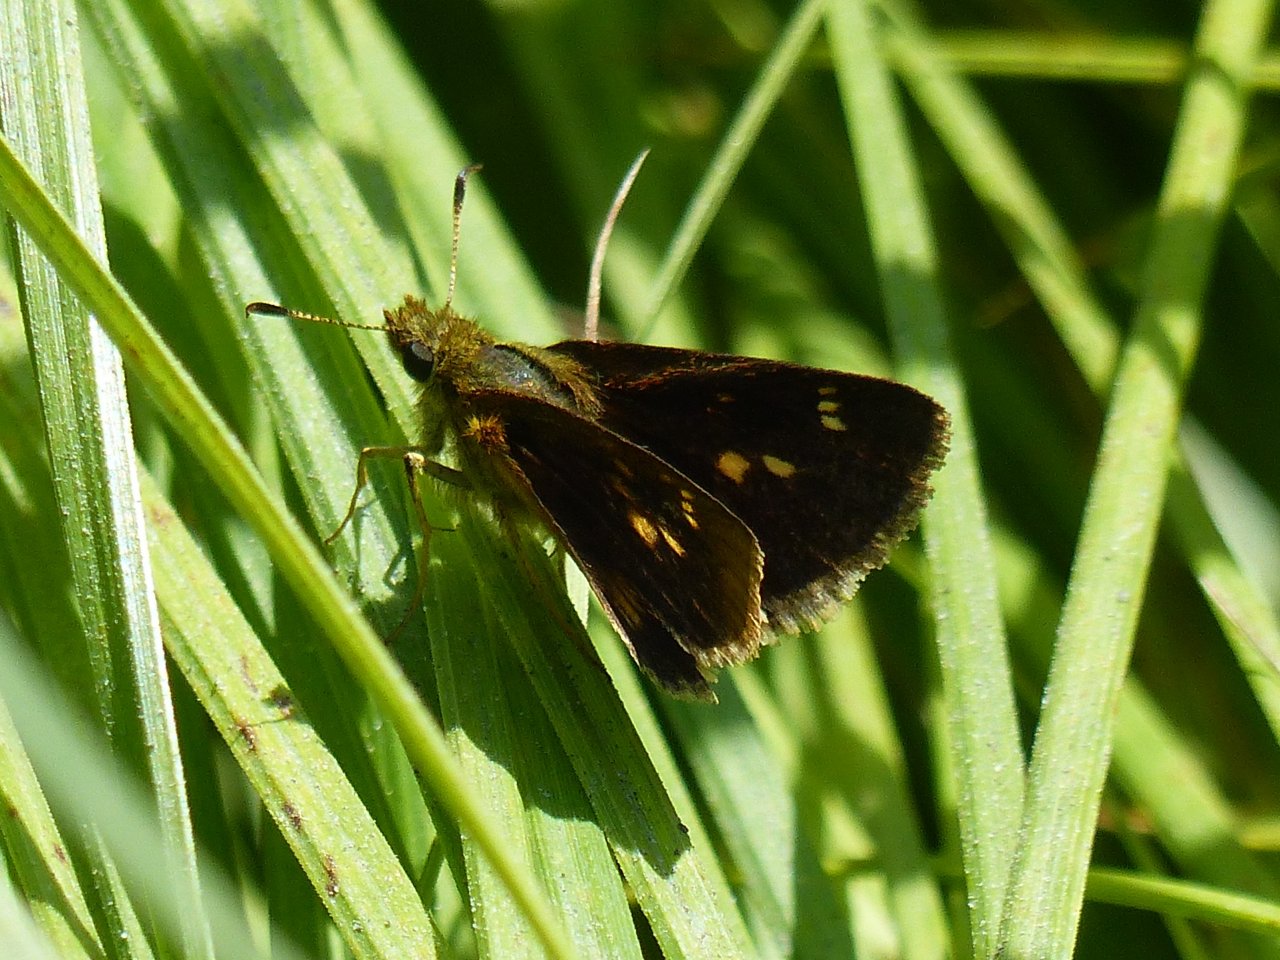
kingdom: Animalia
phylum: Arthropoda
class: Insecta
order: Lepidoptera
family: Hesperiidae
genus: Poanes
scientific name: Poanes massasoit
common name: Mulberry Wing
